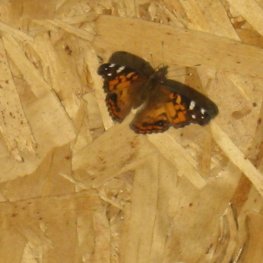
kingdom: Animalia
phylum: Arthropoda
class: Insecta
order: Lepidoptera
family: Nymphalidae
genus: Vanessa
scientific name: Vanessa virginiensis
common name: American Lady
